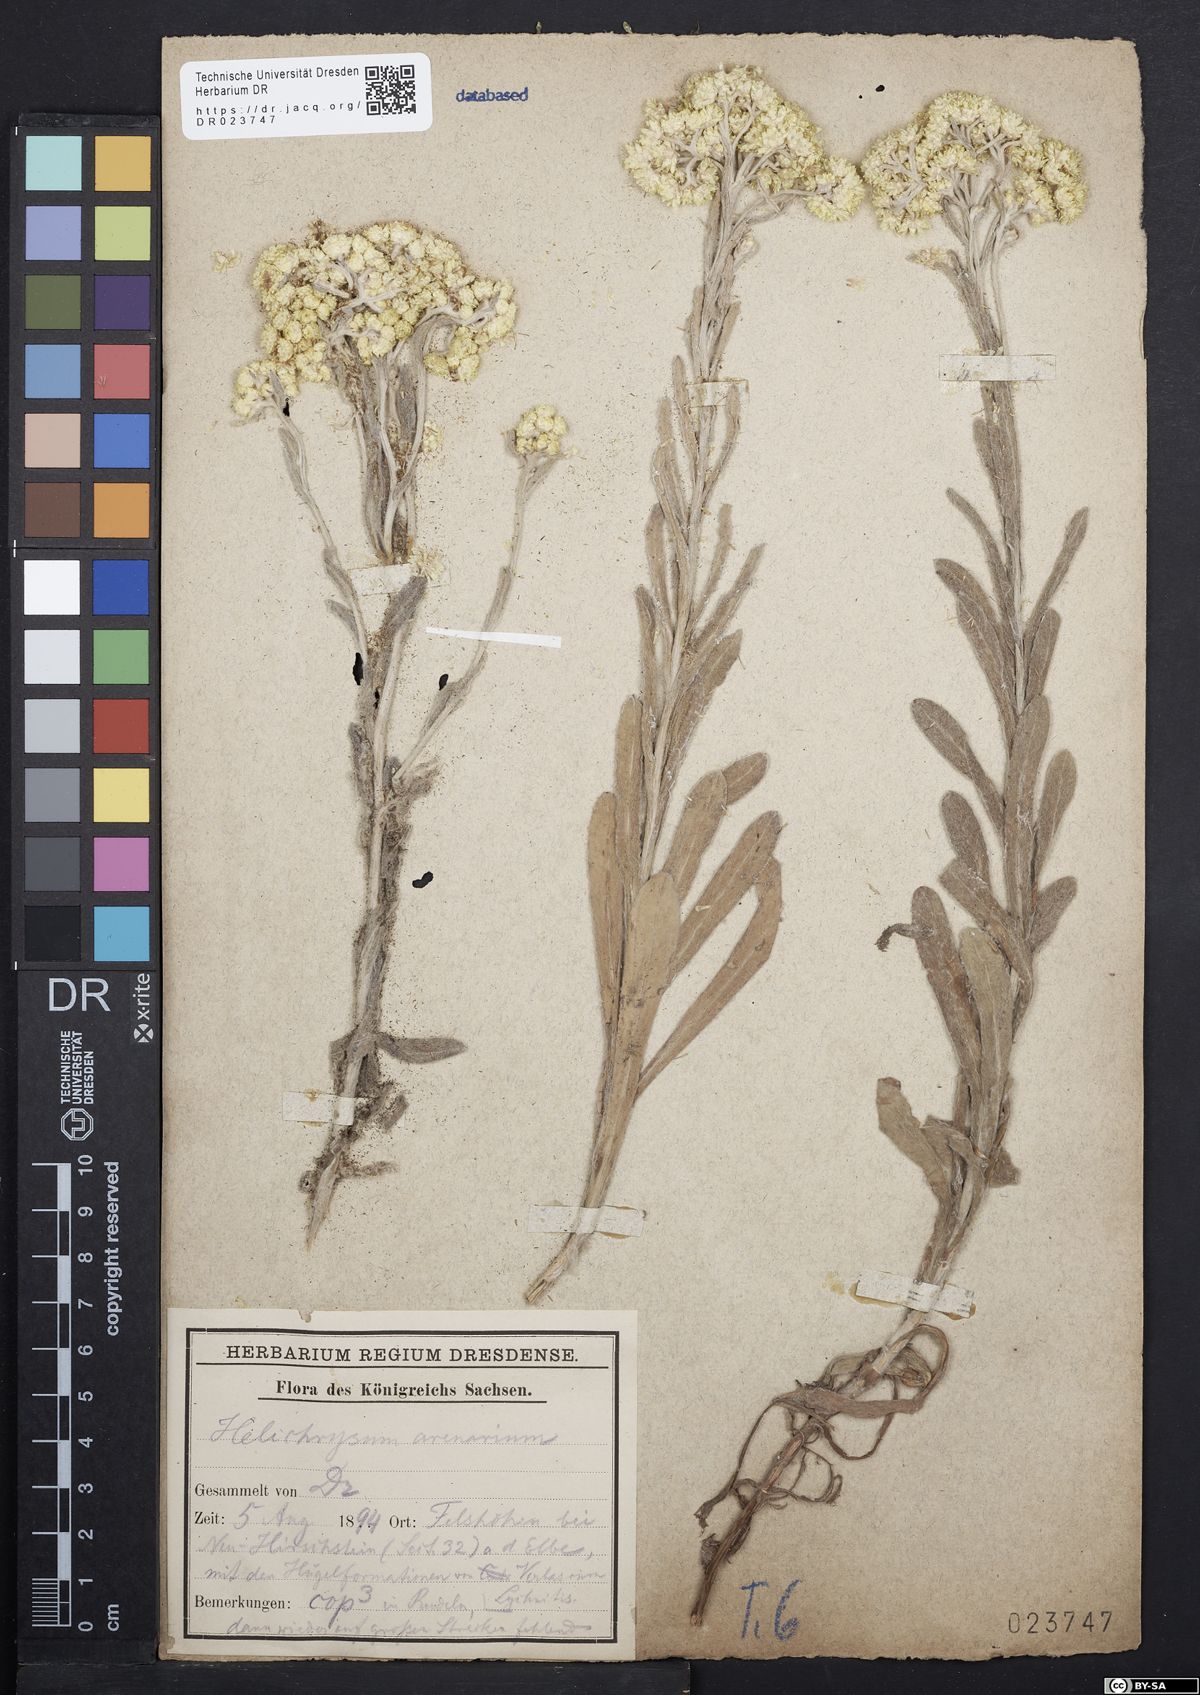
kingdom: Plantae
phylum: Tracheophyta
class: Magnoliopsida
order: Asterales
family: Asteraceae
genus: Helichrysum
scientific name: Helichrysum arenarium
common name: Strawflower
